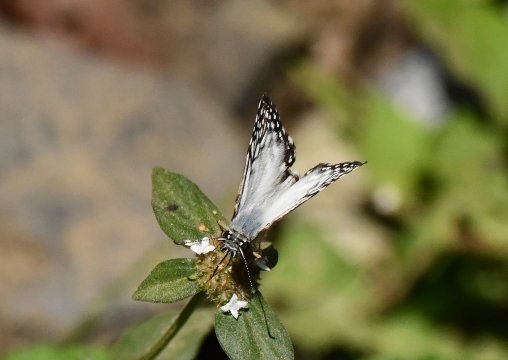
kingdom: Animalia
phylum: Arthropoda
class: Insecta
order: Lepidoptera
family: Hesperiidae
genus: Pyrgus
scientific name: Pyrgus oileus
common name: Tropical Checkered-Skipper
